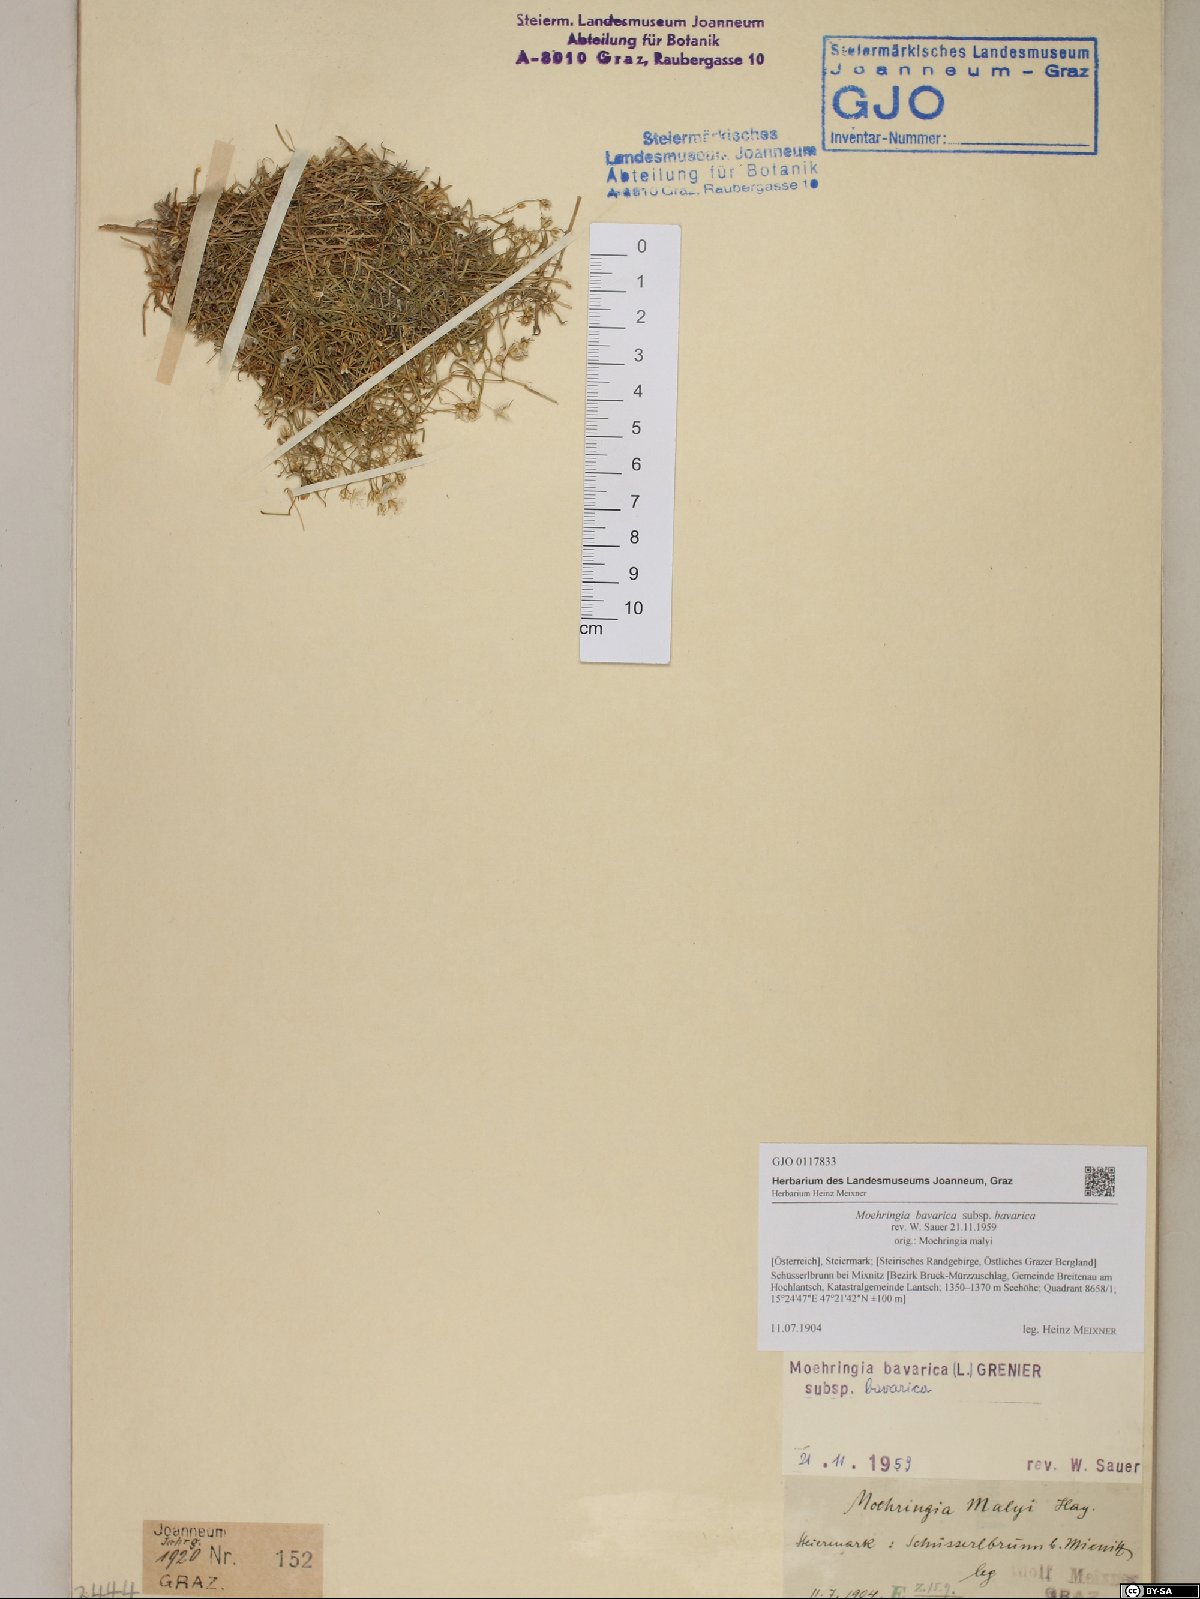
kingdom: Plantae
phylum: Tracheophyta
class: Magnoliopsida
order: Caryophyllales
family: Caryophyllaceae
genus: Moehringia
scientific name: Moehringia bavarica
